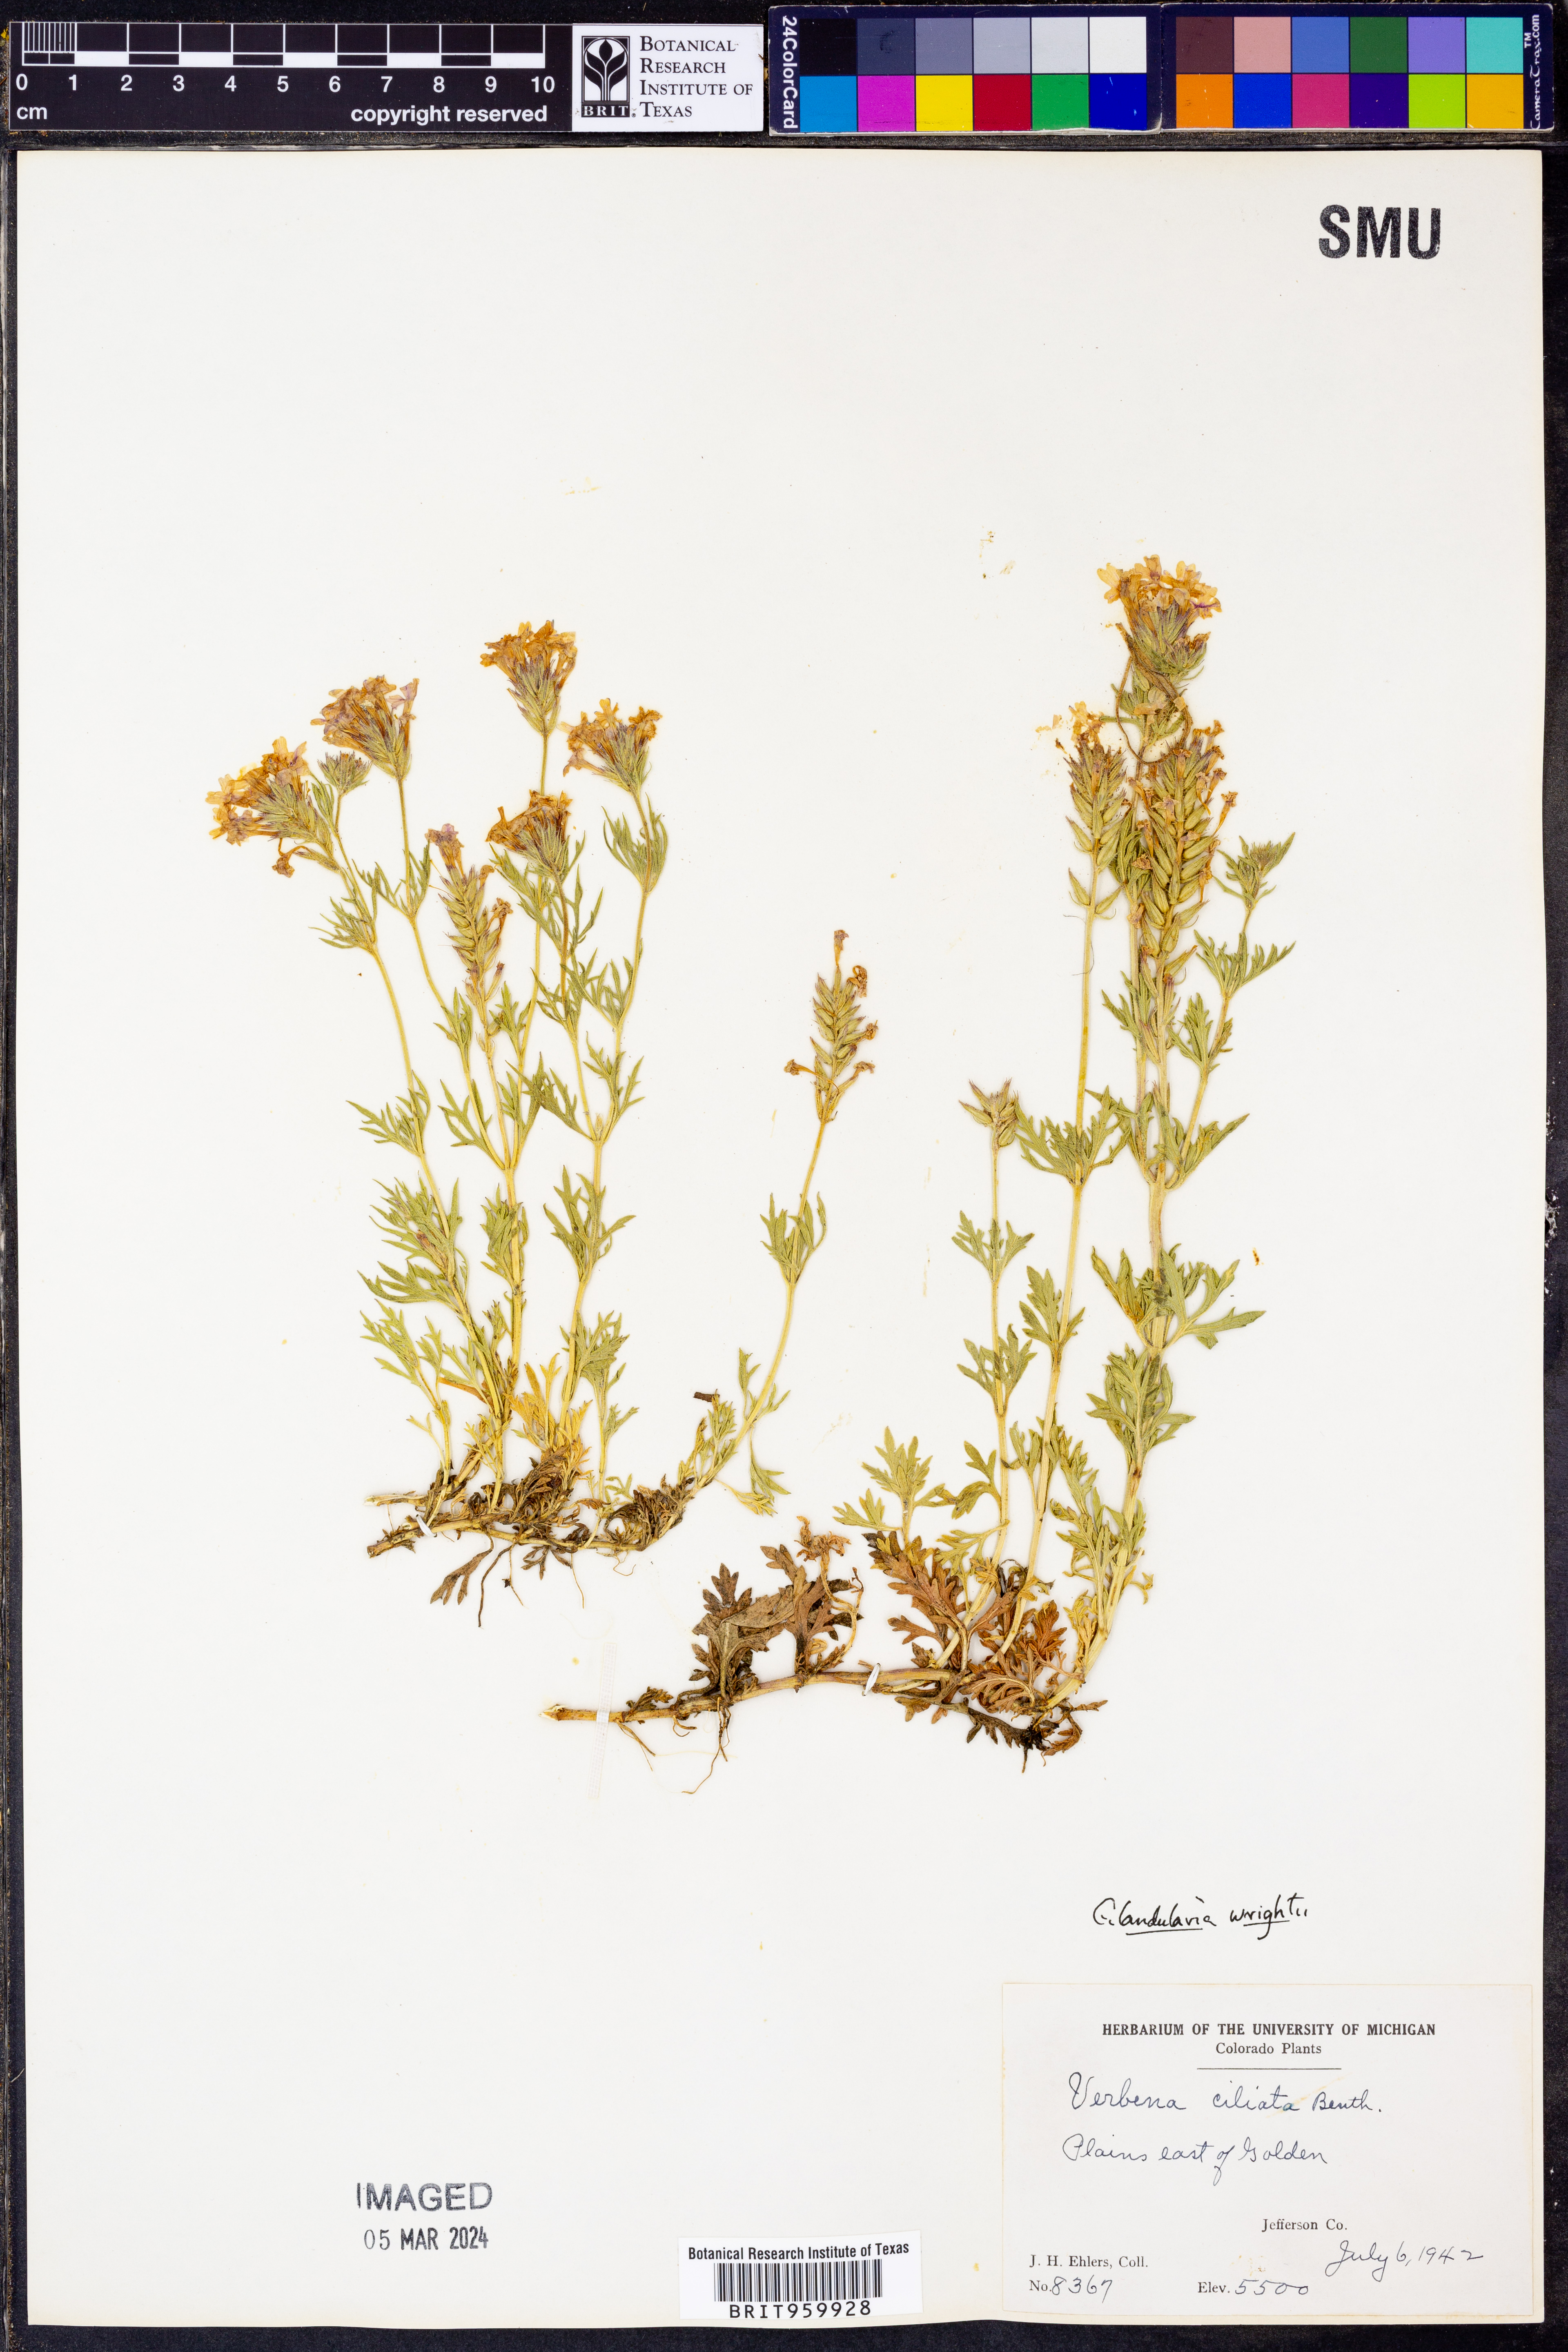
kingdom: Plantae
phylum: Tracheophyta
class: Magnoliopsida
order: Lamiales
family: Verbenaceae
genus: Verbena
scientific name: Verbena bipinnatifida
